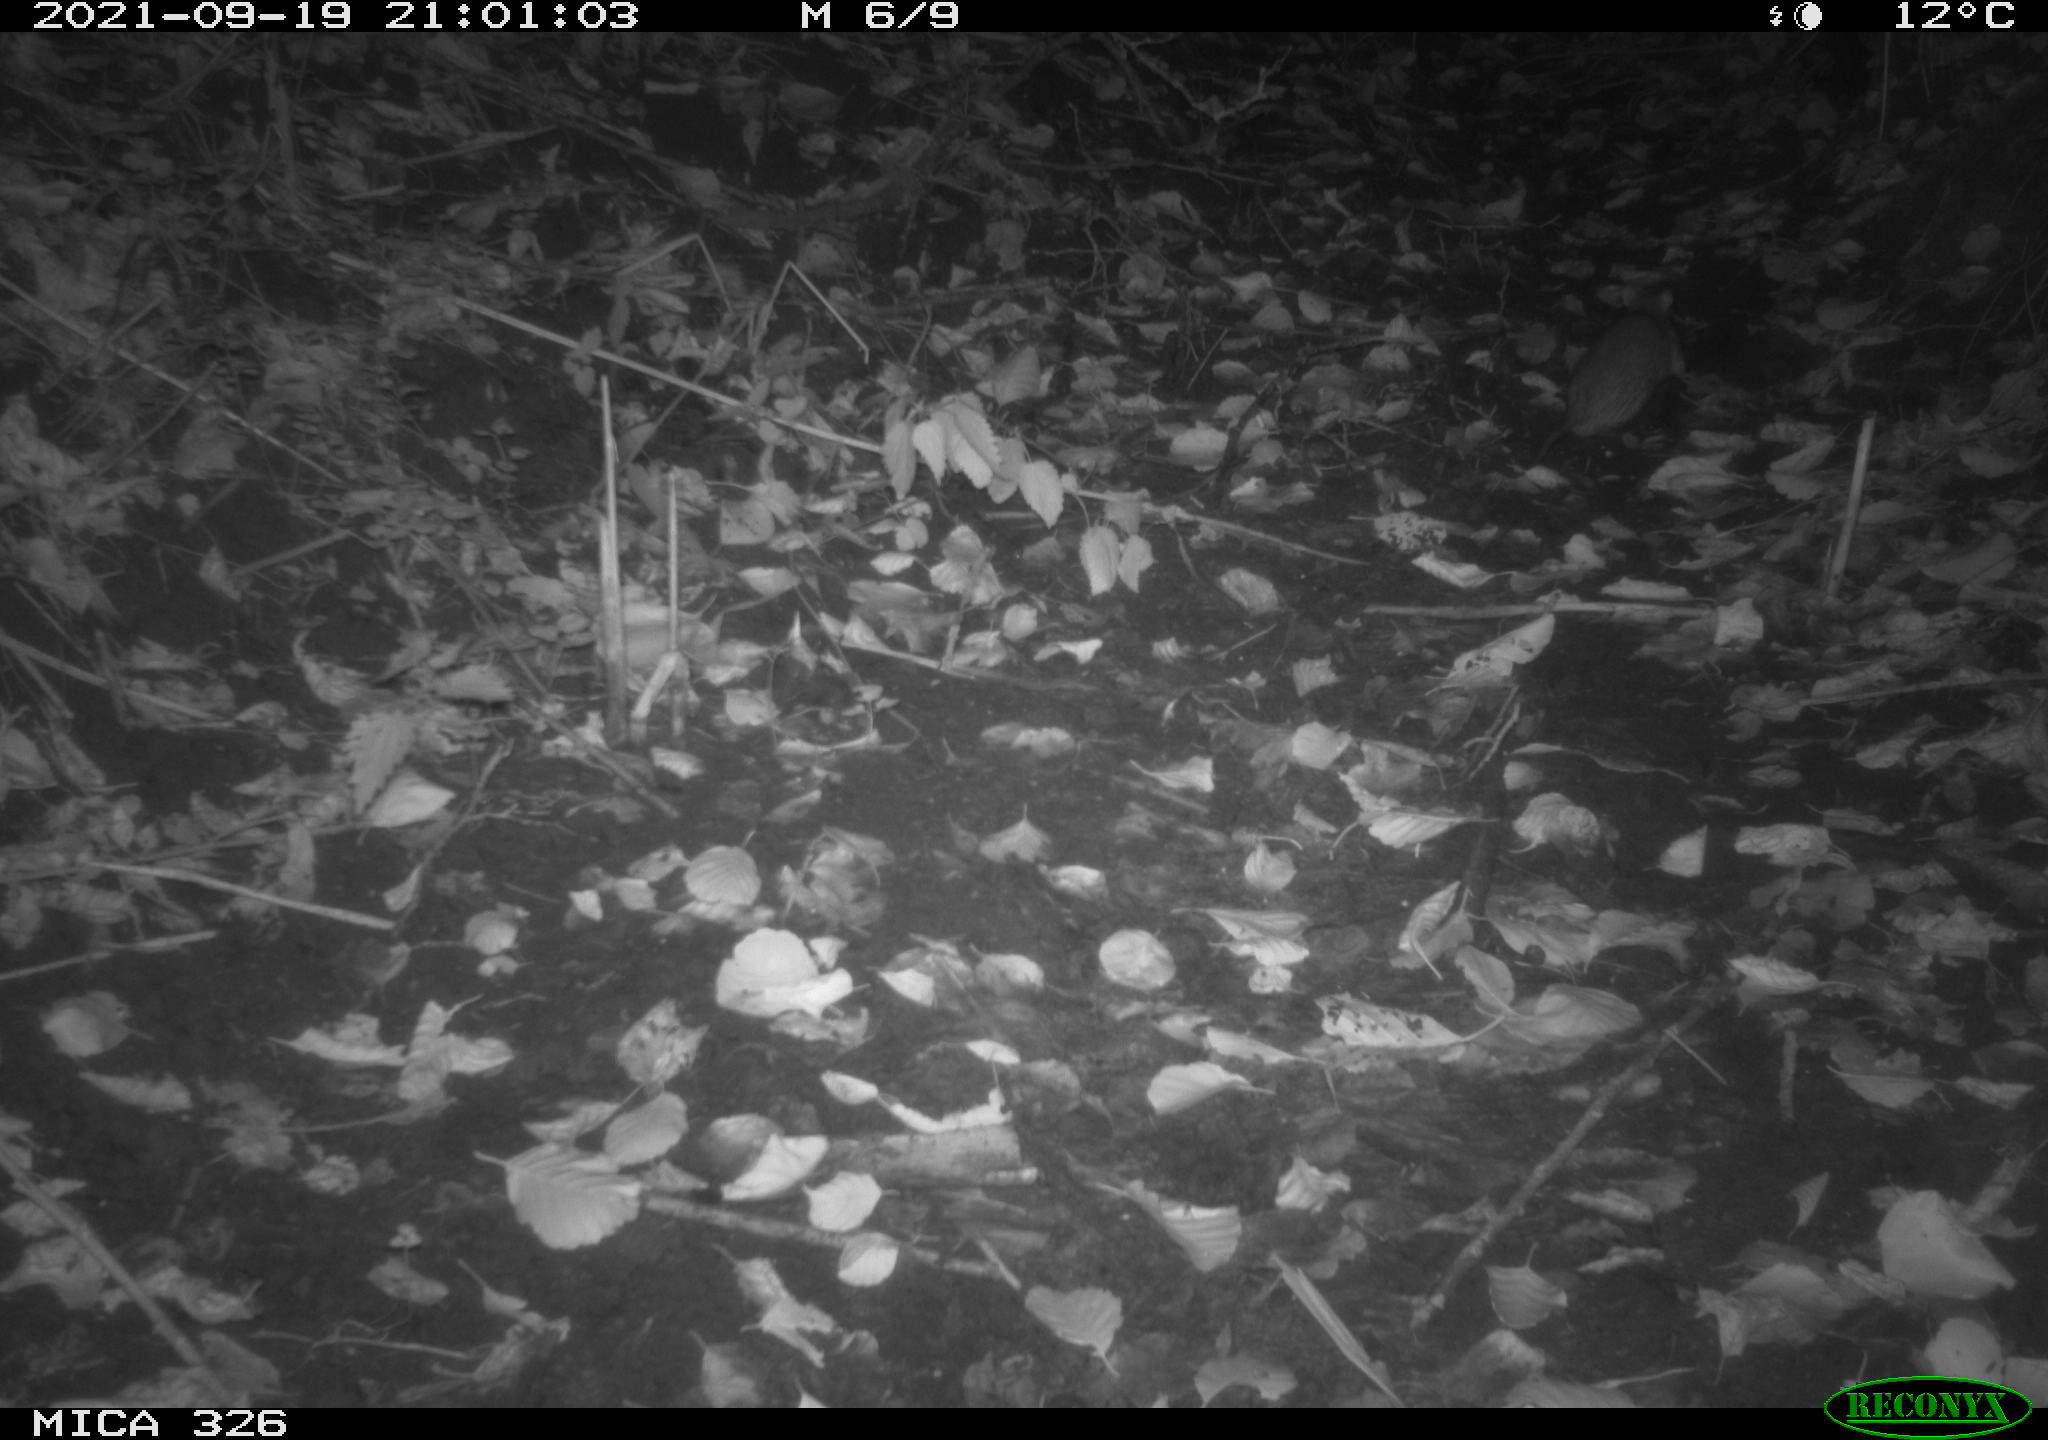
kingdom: Animalia
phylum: Chordata
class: Mammalia
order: Rodentia
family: Muridae
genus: Rattus
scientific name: Rattus norvegicus
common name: Brown rat
